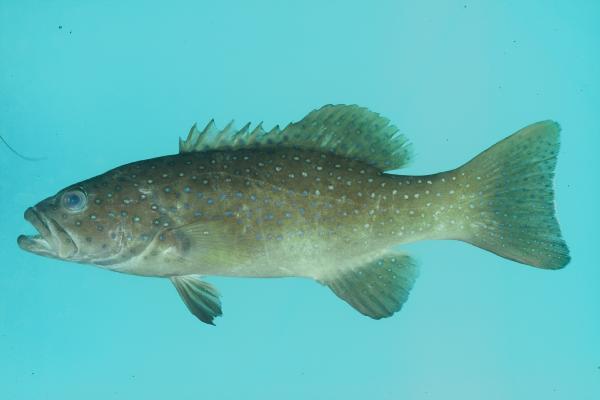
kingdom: Animalia
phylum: Chordata
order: Perciformes
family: Serranidae
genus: Plectropomus
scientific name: Plectropomus leopardus
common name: Coral trout
